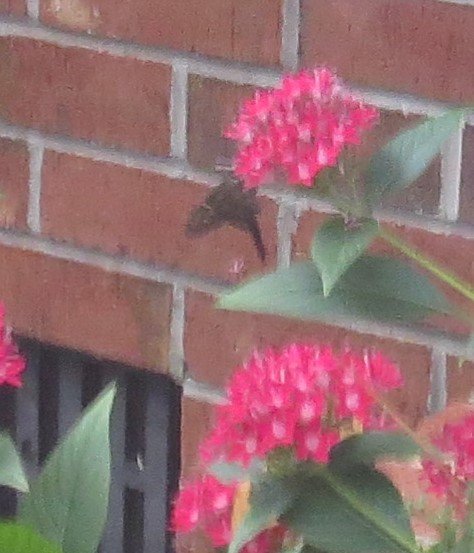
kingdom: Animalia
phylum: Arthropoda
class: Insecta
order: Lepidoptera
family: Hesperiidae
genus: Urbanus
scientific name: Urbanus proteus
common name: Long-tailed Skipper
